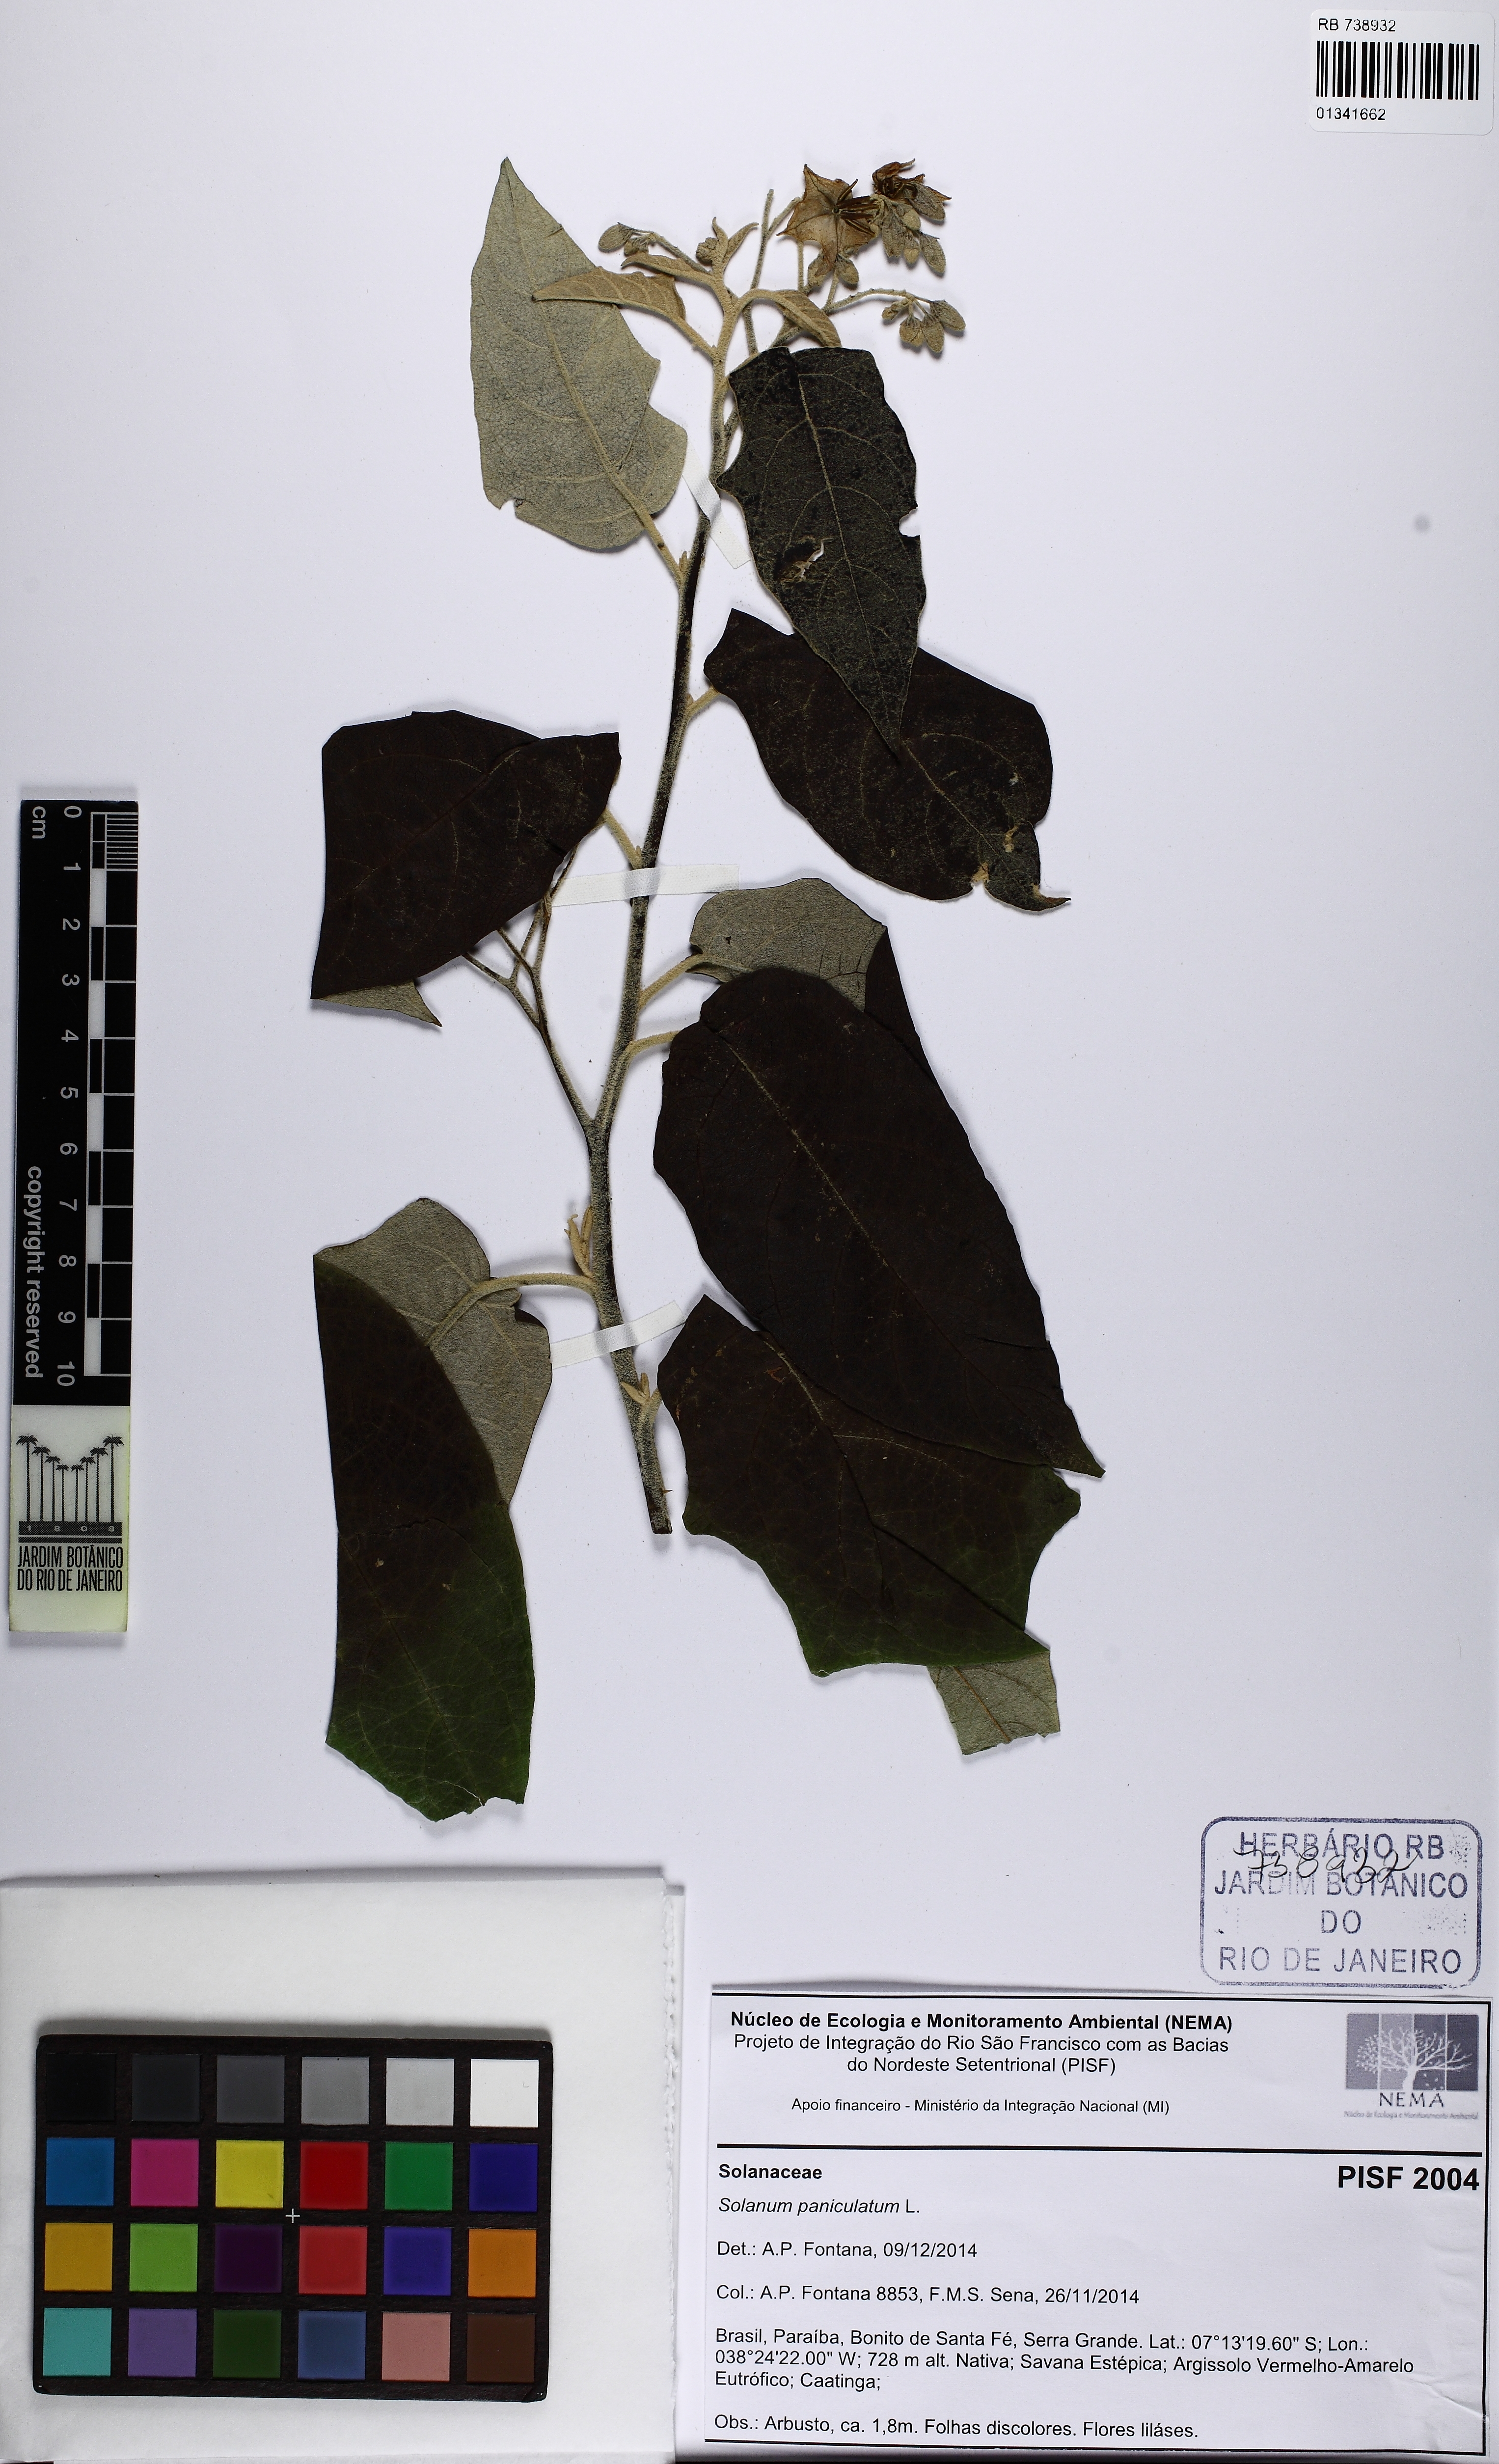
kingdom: Plantae
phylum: Tracheophyta
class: Magnoliopsida
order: Solanales
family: Solanaceae
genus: Solanum
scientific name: Solanum paniculatum
